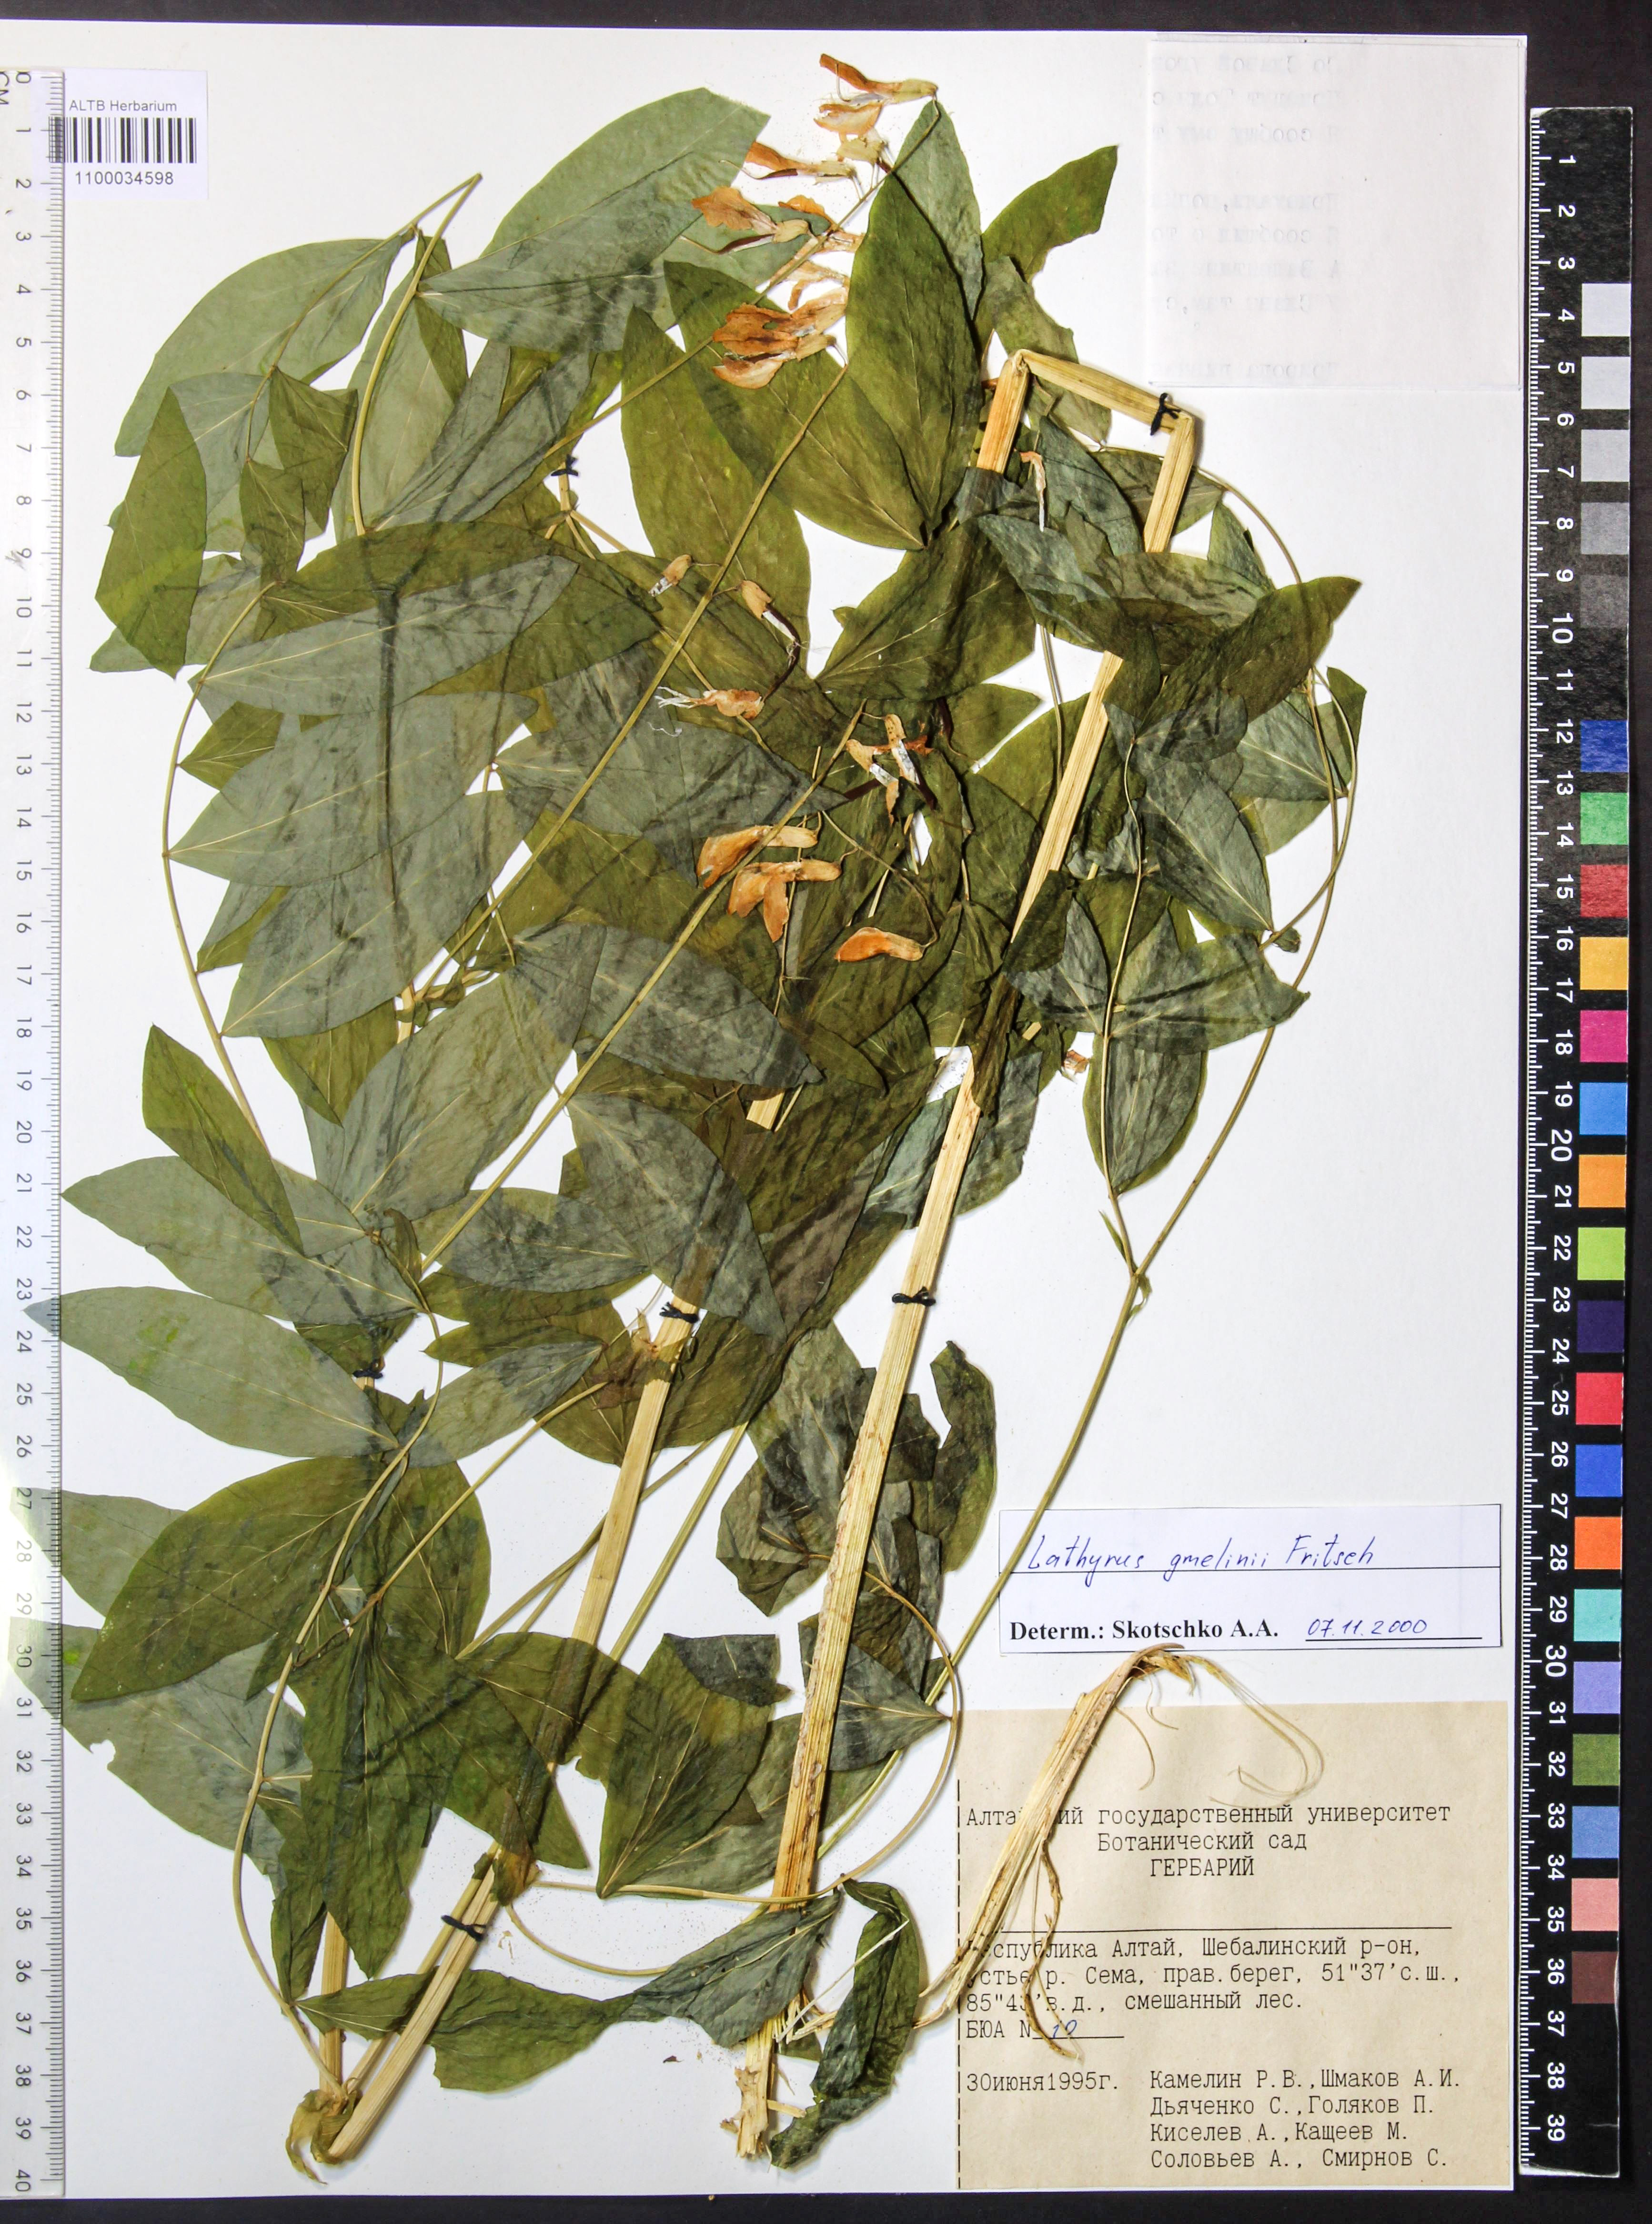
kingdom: Plantae
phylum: Tracheophyta
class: Magnoliopsida
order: Fabales
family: Fabaceae
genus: Lathyrus
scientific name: Lathyrus gmelinii
